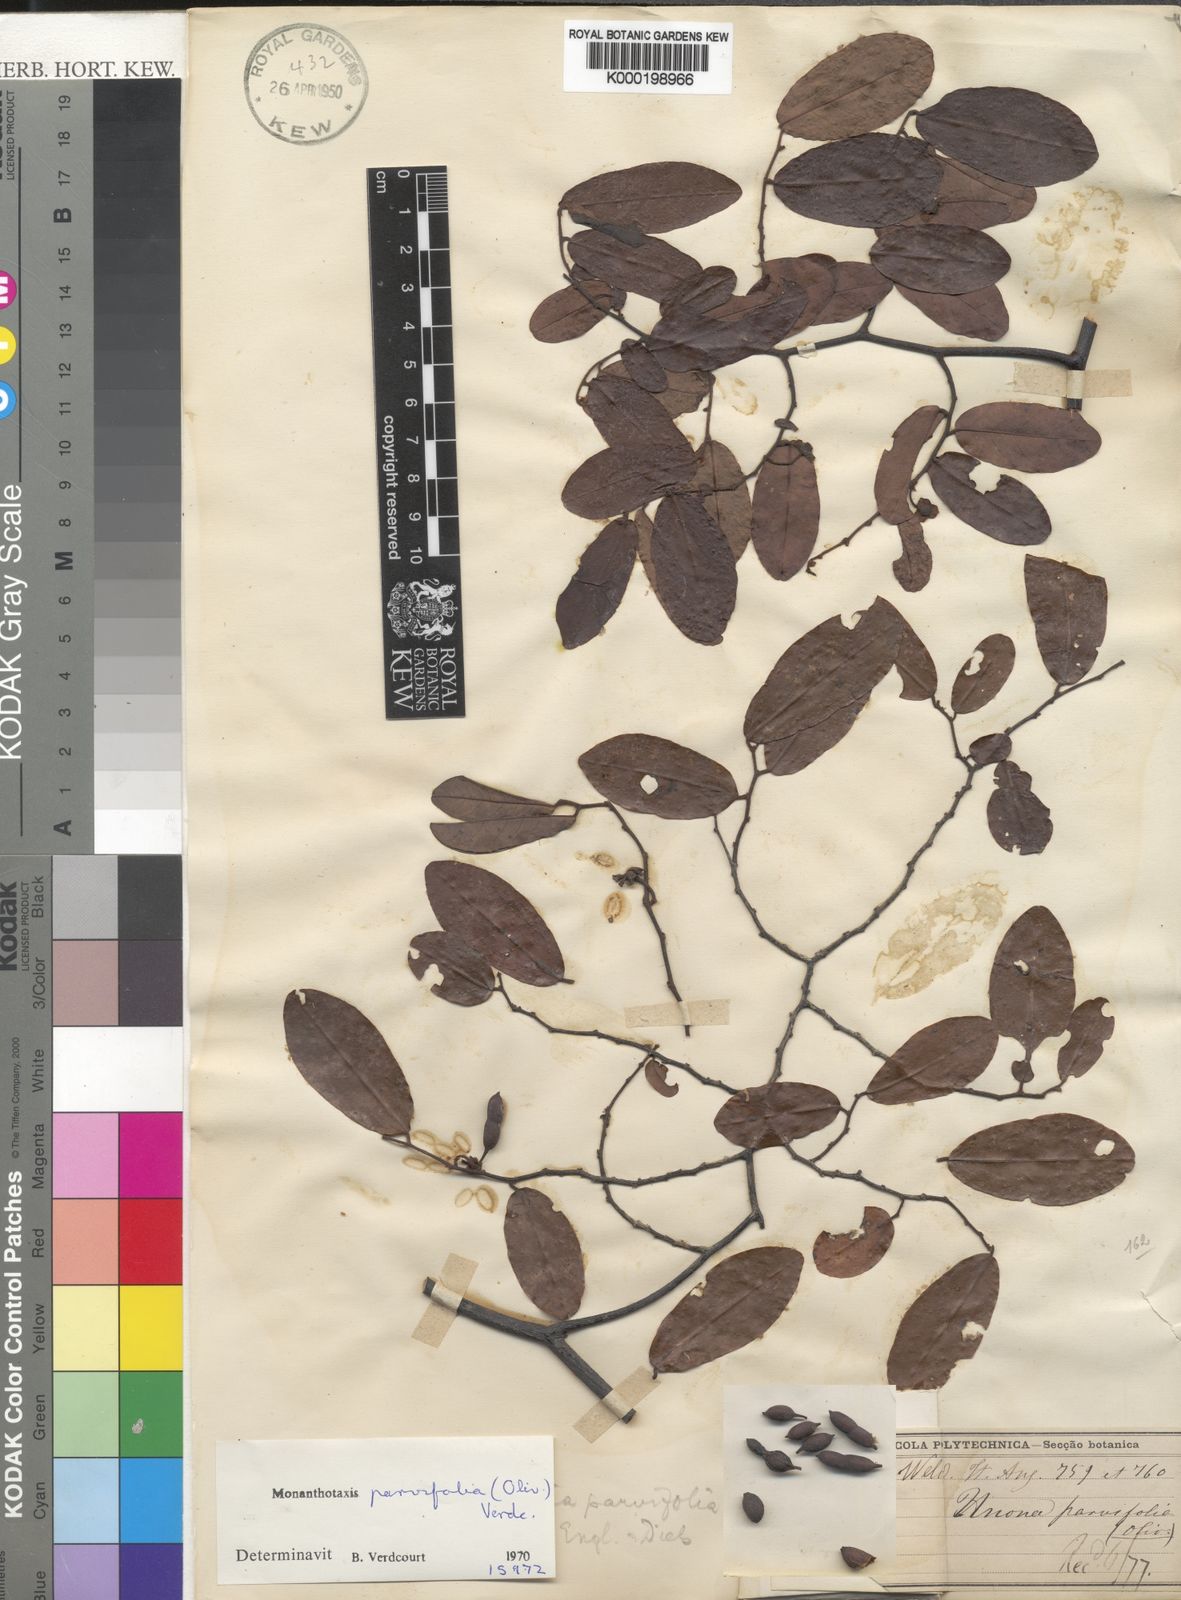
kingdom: Plantae
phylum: Tracheophyta
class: Magnoliopsida
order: Magnoliales
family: Annonaceae
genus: Monanthotaxis
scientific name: Monanthotaxis parvifolia
